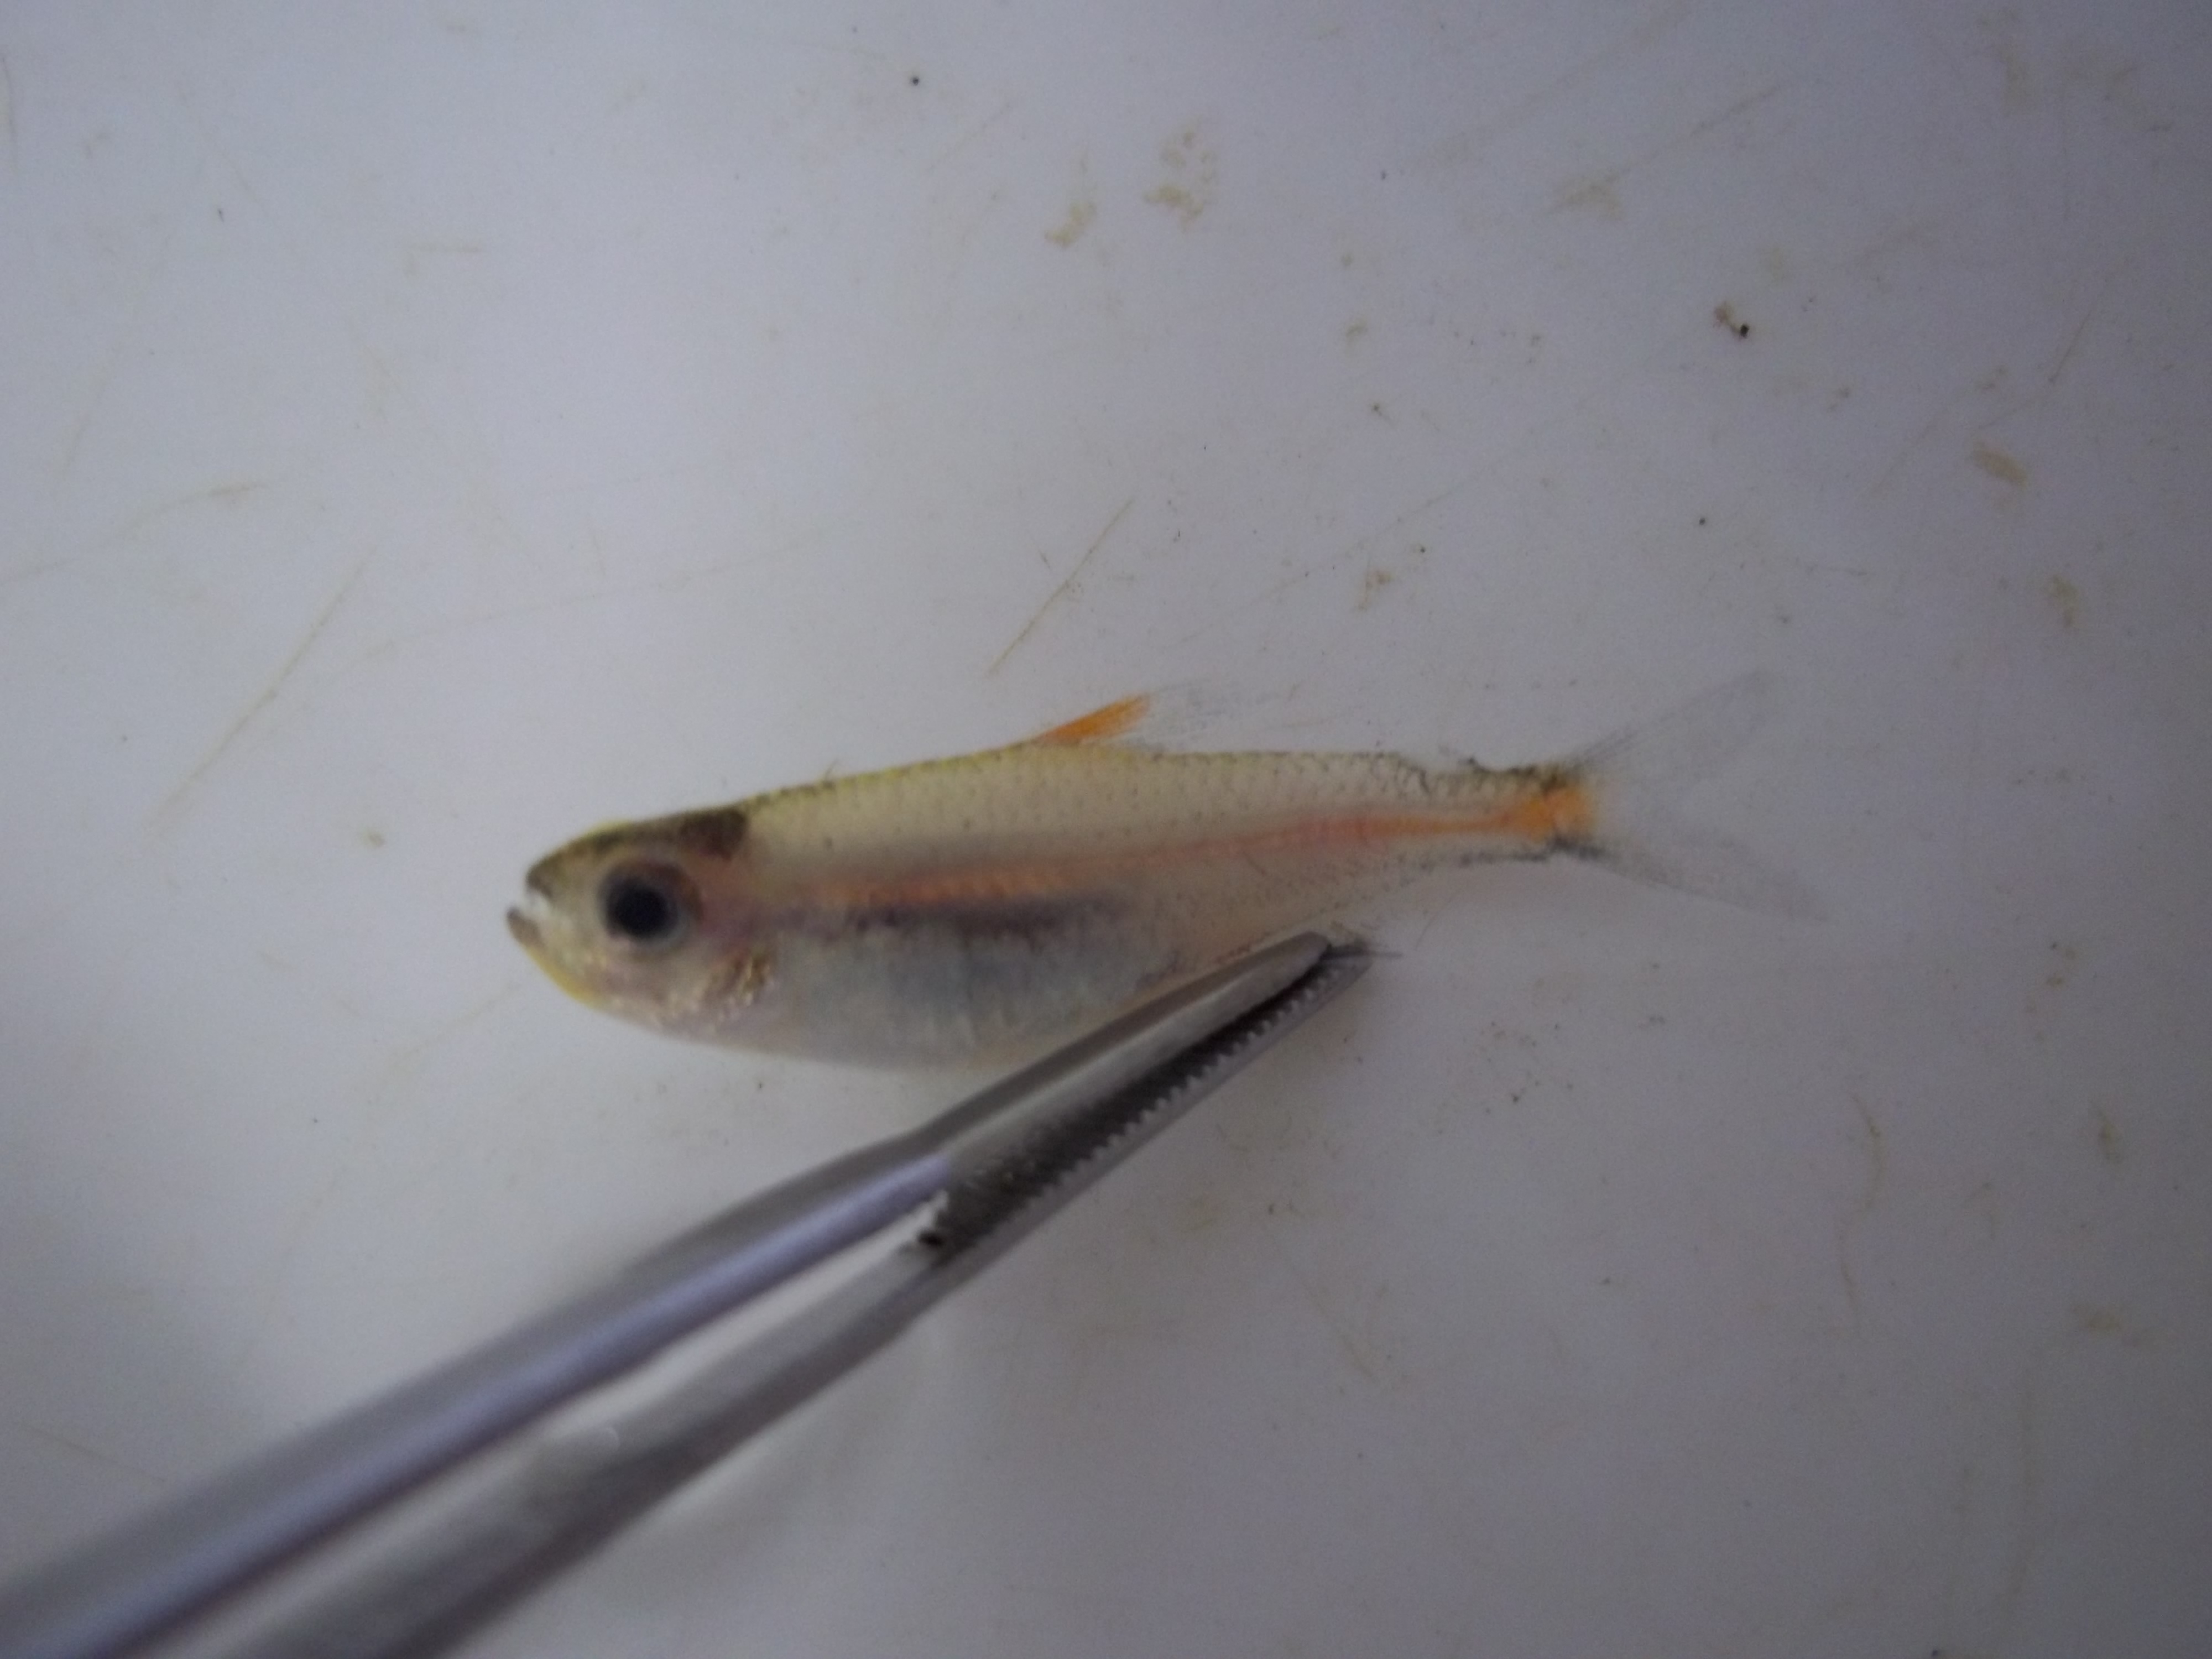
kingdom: Animalia
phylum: Chordata
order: Characiformes
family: Characidae
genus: Hemigrammus
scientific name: Hemigrammus erythrozonus
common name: Glowlight tetra
